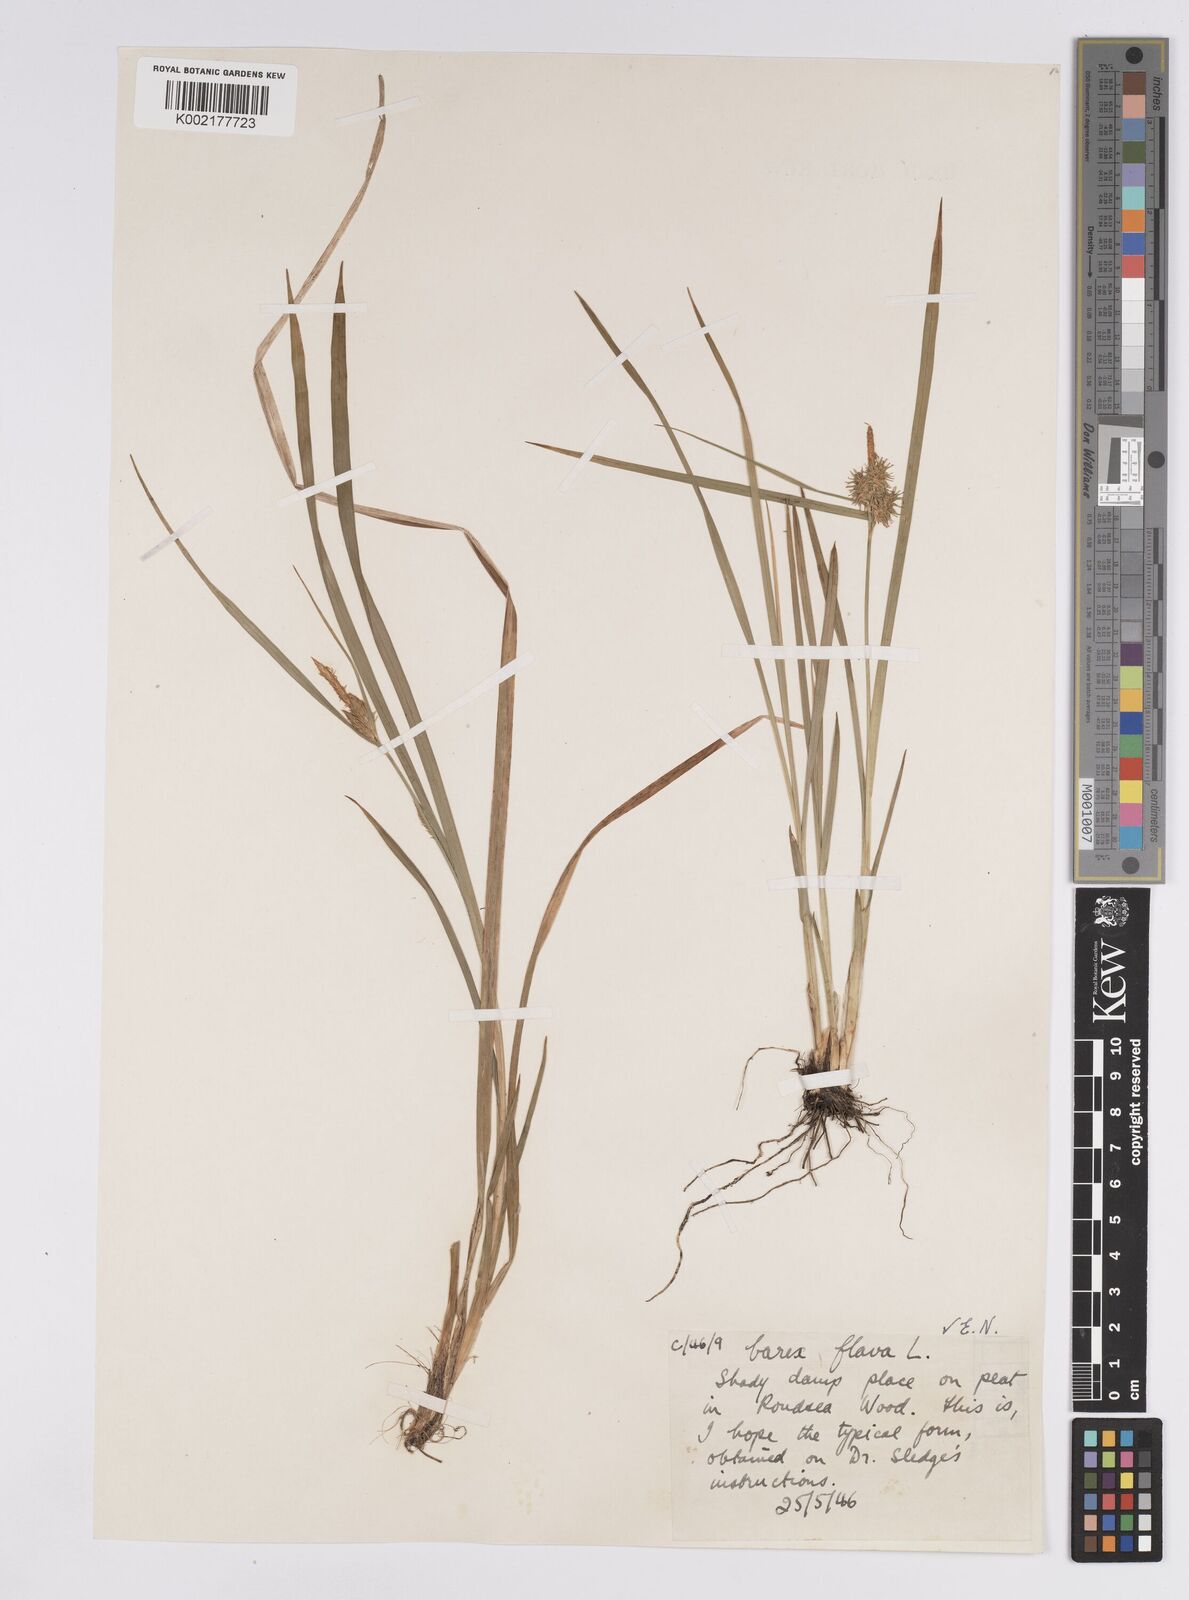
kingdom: Plantae
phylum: Tracheophyta
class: Liliopsida
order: Poales
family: Cyperaceae
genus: Carex
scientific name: Carex flava
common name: Large yellow-sedge
